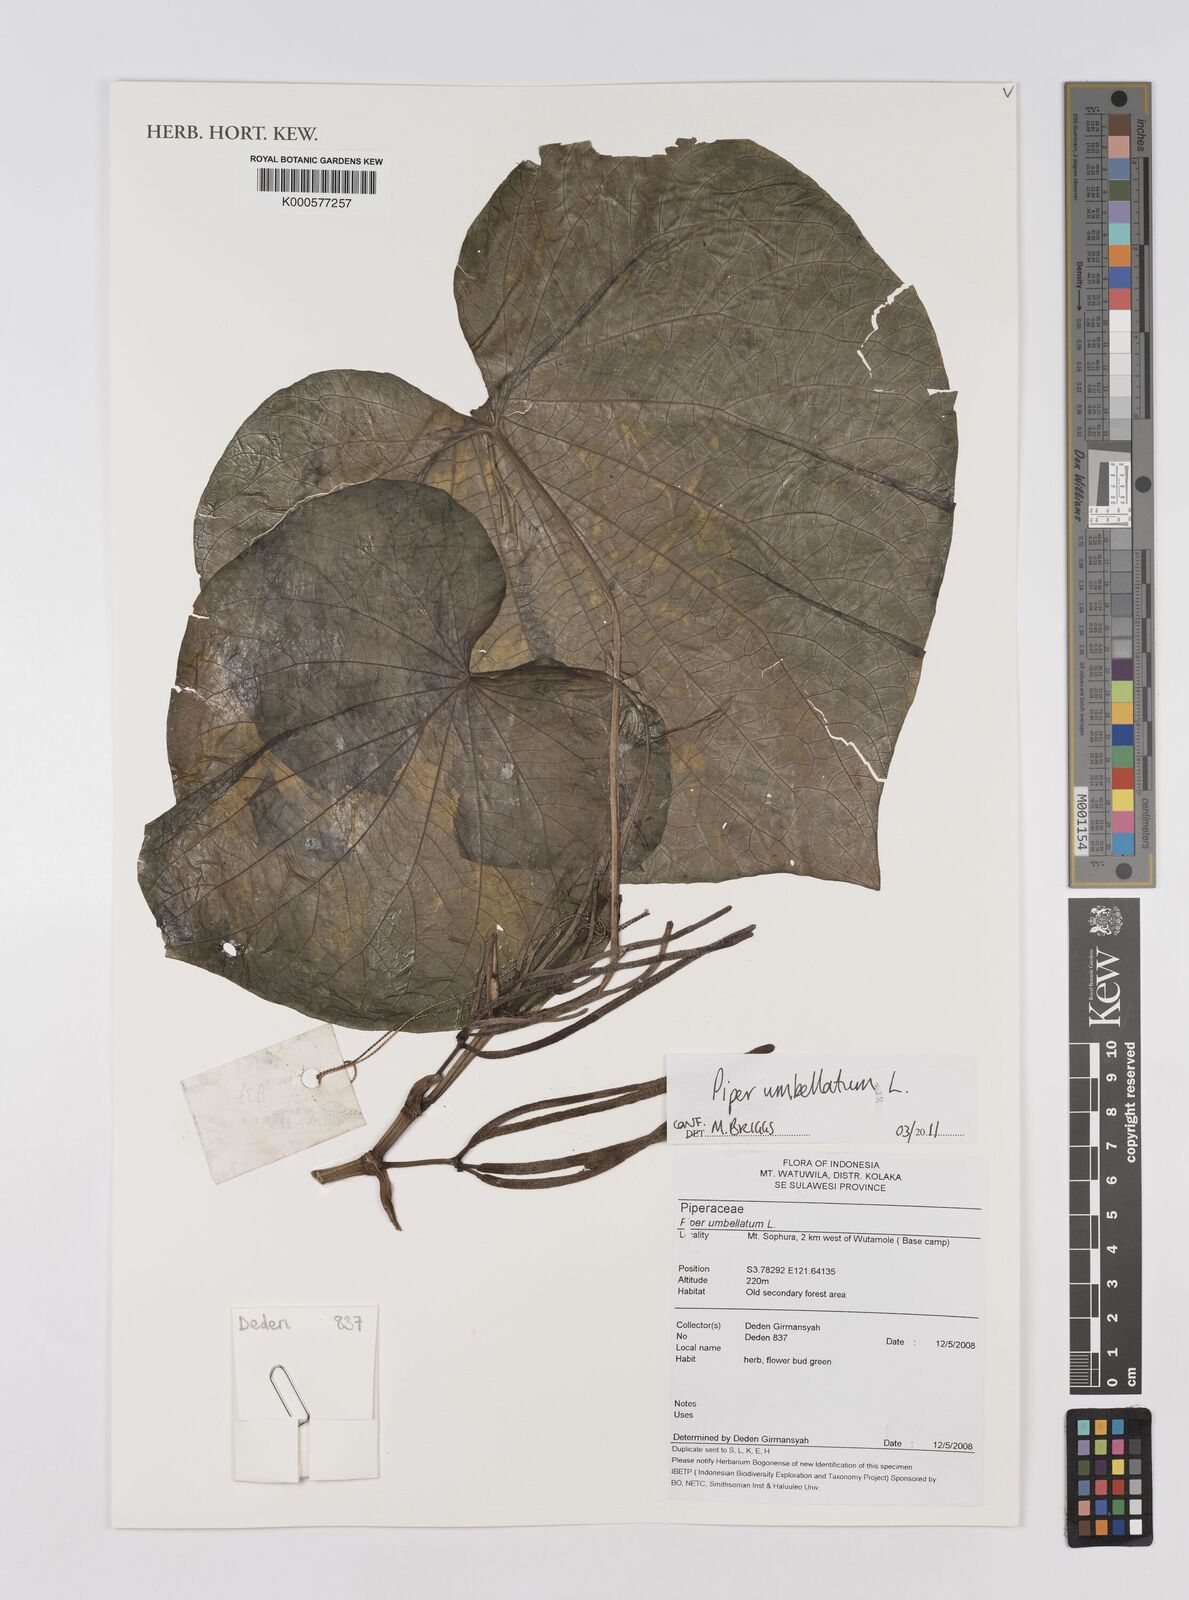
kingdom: Plantae
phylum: Tracheophyta
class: Magnoliopsida
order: Piperales
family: Piperaceae
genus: Piper
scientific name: Piper umbellatum
